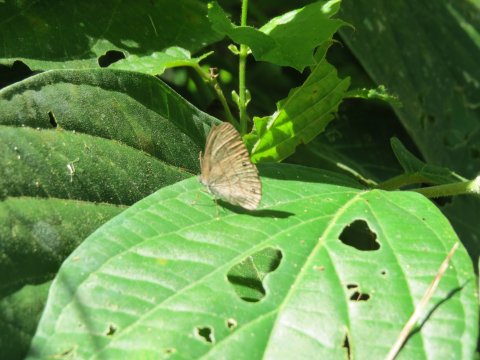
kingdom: Animalia
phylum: Arthropoda
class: Insecta
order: Lepidoptera
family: Nymphalidae
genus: Euptychia
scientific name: Euptychia Cissia pompilia
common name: Plain Satyr
